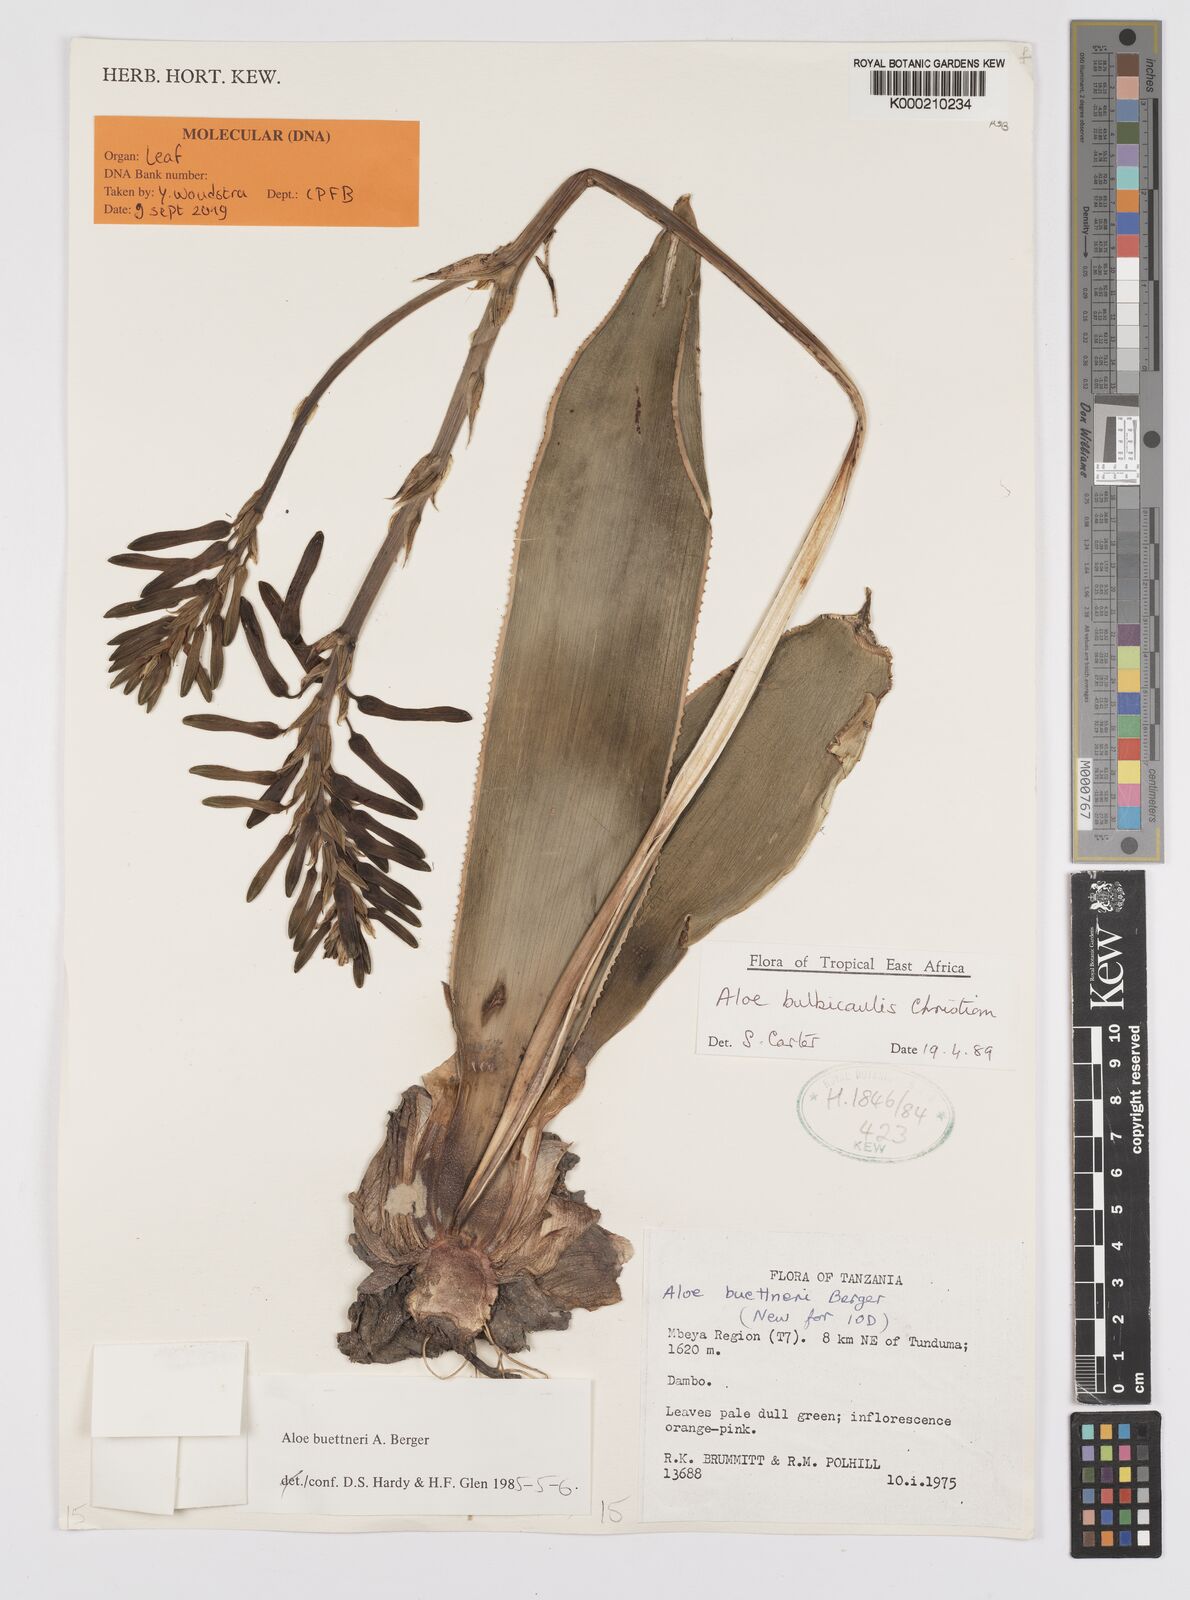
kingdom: Plantae
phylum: Tracheophyta
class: Liliopsida
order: Asparagales
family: Asphodelaceae
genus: Aloe
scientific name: Aloe bulbicaulis
